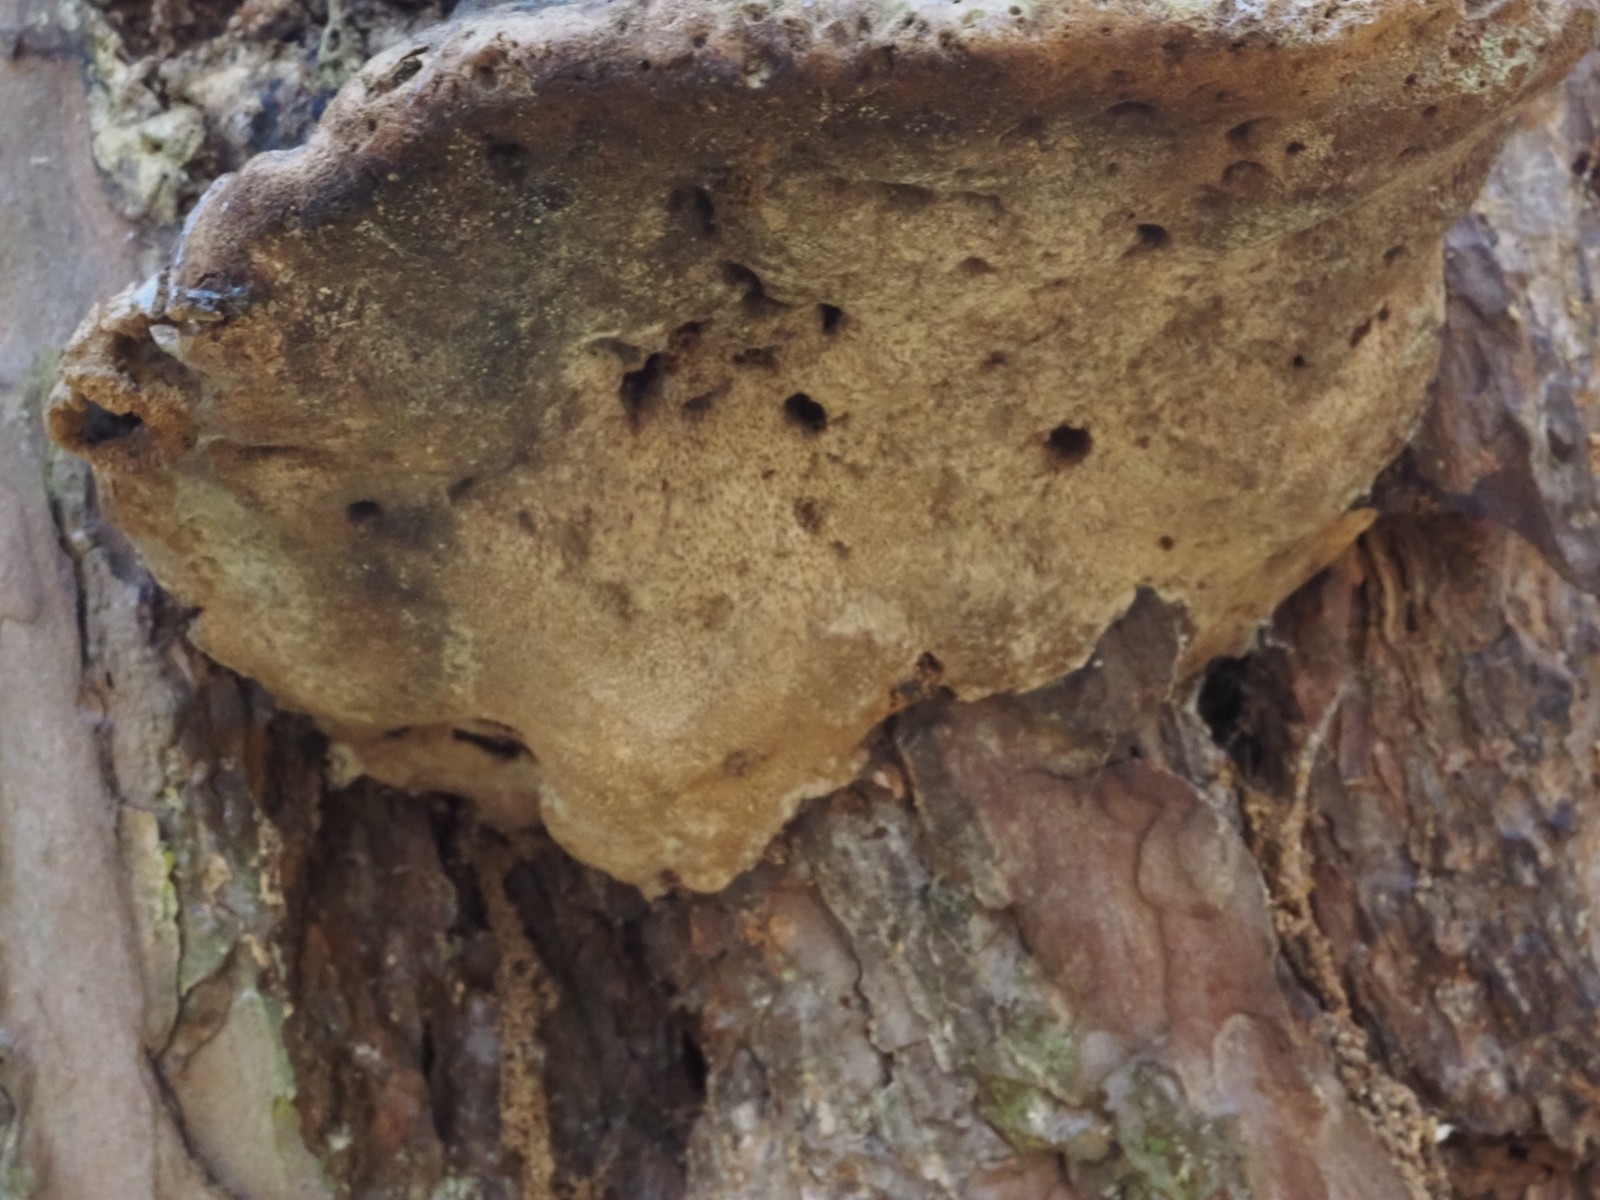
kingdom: Fungi
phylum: Basidiomycota
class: Agaricomycetes
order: Hymenochaetales
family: Hymenochaetaceae
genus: Porodaedalea
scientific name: Porodaedalea pini
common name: fyrre-ildporesvamp
